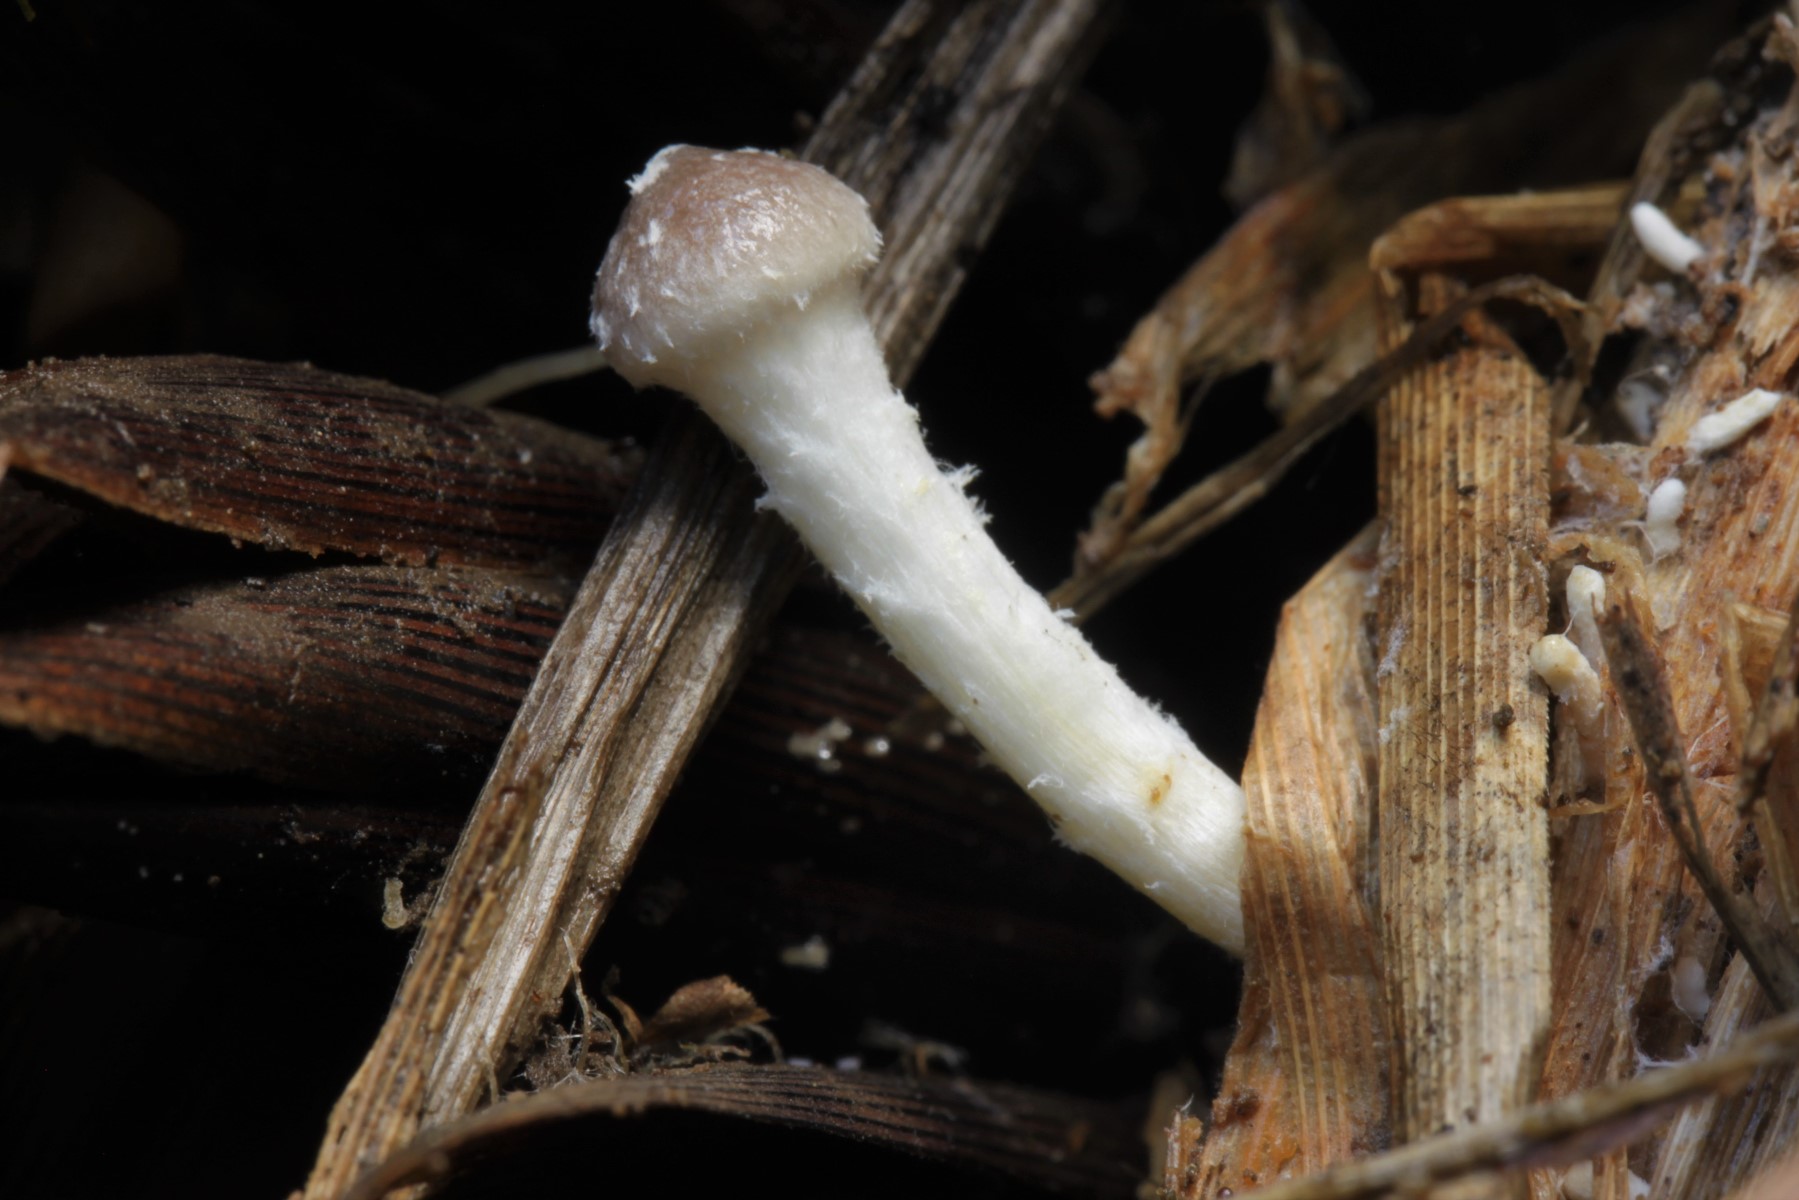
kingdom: Fungi
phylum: Basidiomycota
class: Agaricomycetes
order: Agaricales
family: Strophariaceae
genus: Stropharia
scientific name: Stropharia inuncta
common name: lillabrun bredblad
